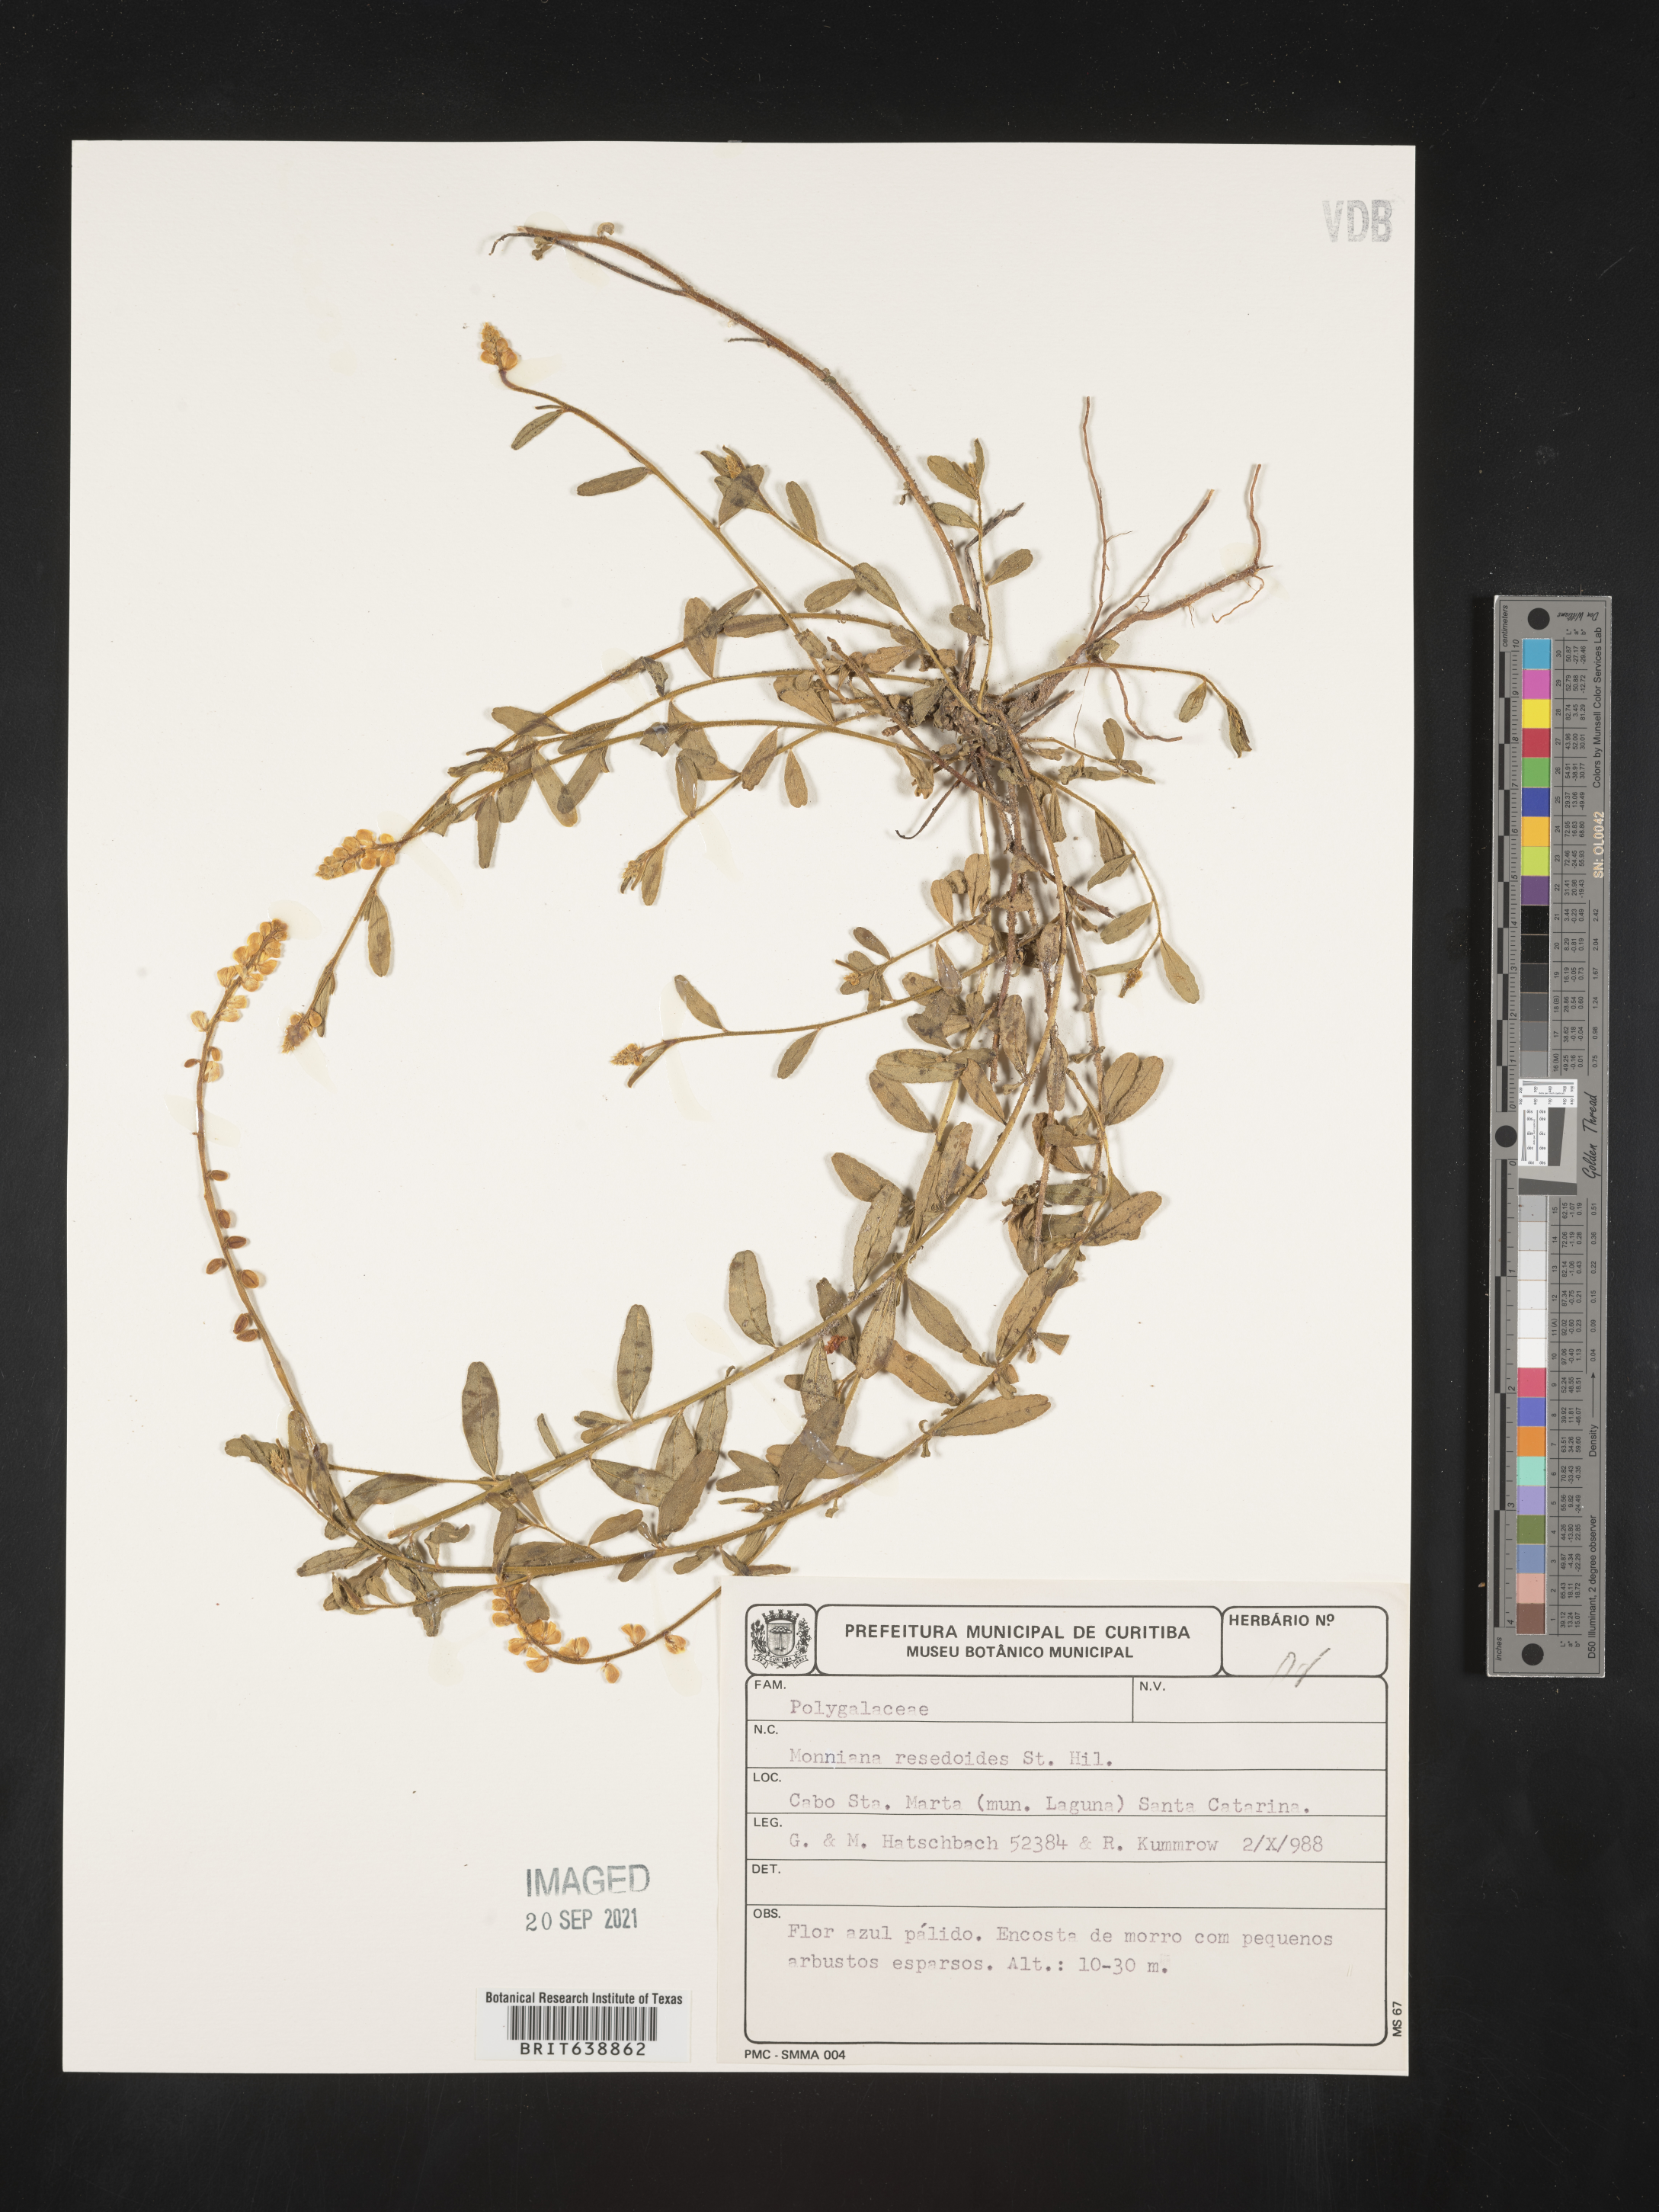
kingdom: Plantae
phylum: Tracheophyta
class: Magnoliopsida
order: Fabales
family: Polygalaceae
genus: Monnina
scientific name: Monnina
